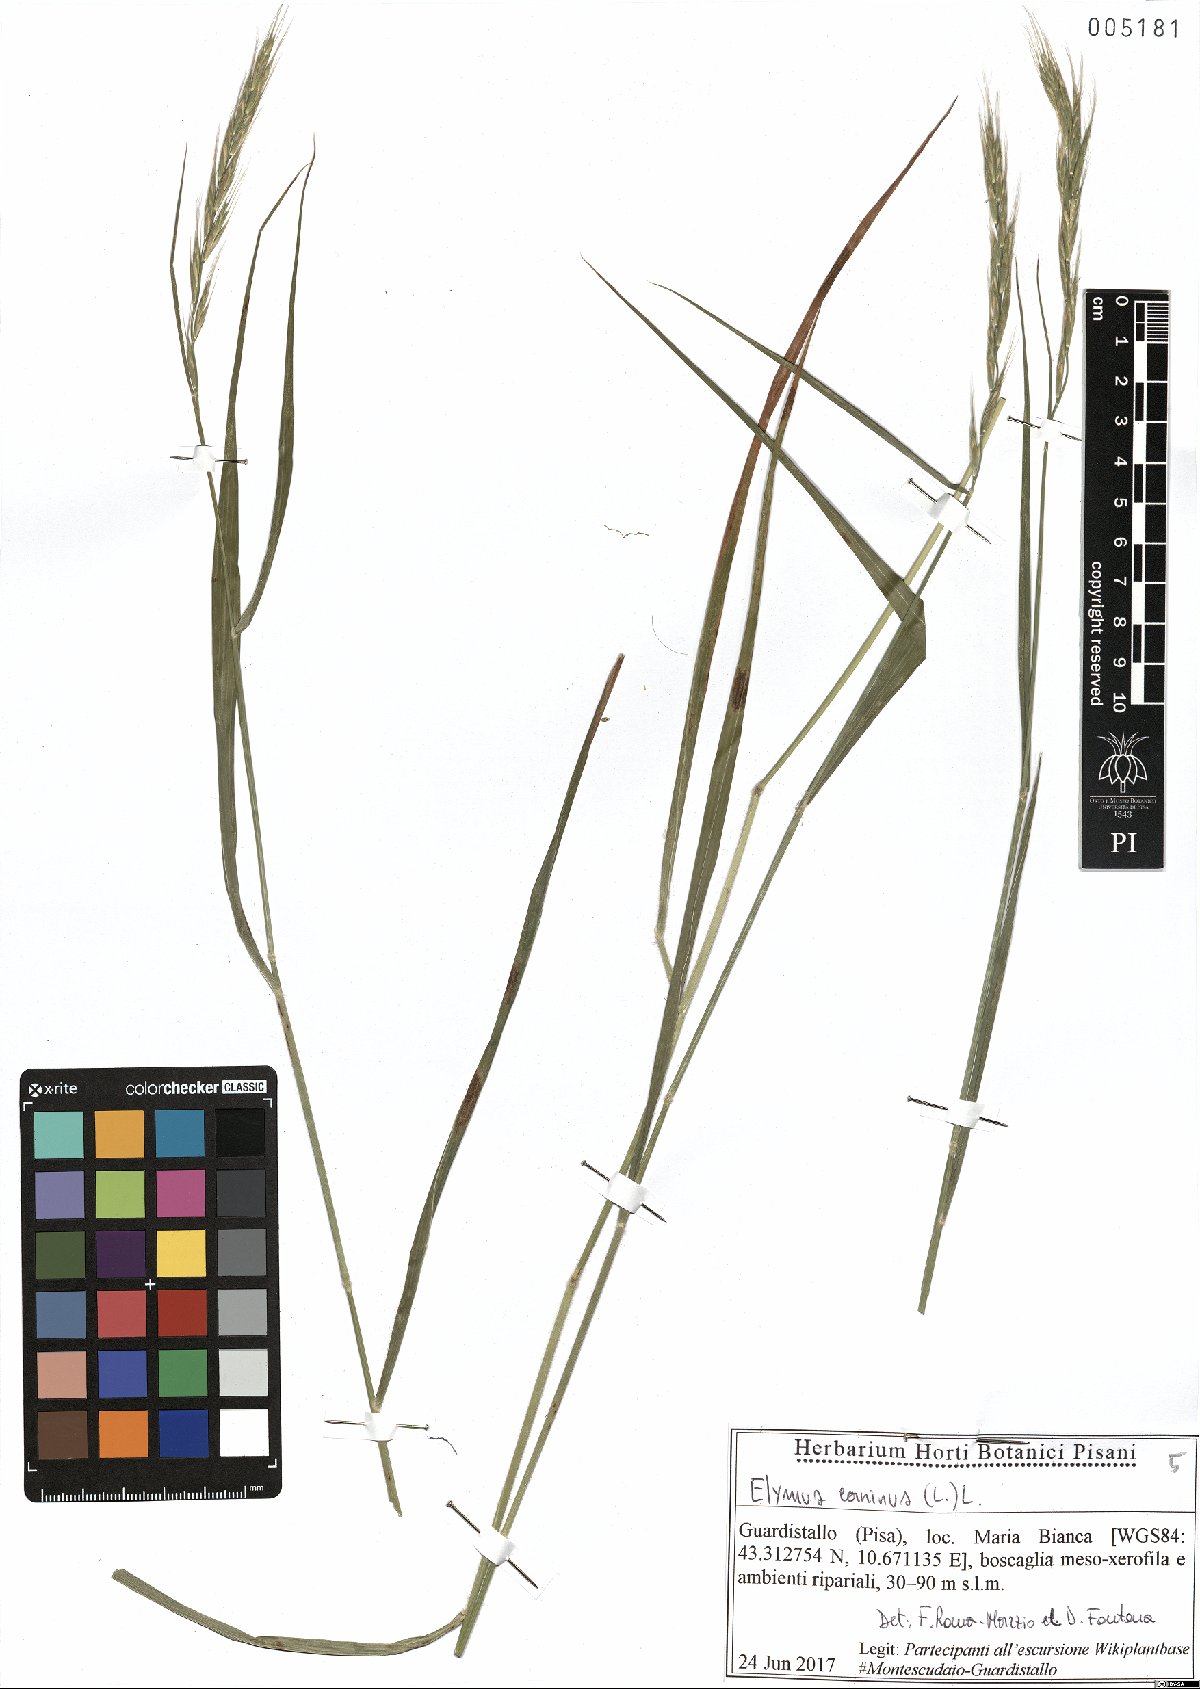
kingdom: Plantae
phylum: Tracheophyta
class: Liliopsida
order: Poales
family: Poaceae
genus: Elymus
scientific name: Elymus caninus
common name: Bearded couch
